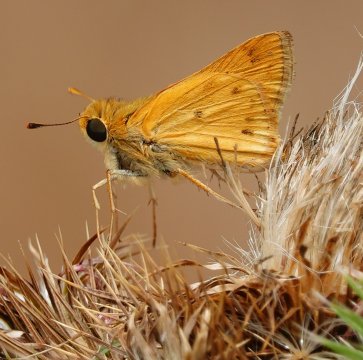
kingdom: Animalia
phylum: Arthropoda
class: Insecta
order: Lepidoptera
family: Hesperiidae
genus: Hylephila
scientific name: Hylephila phyleus
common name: Fiery Skipper
